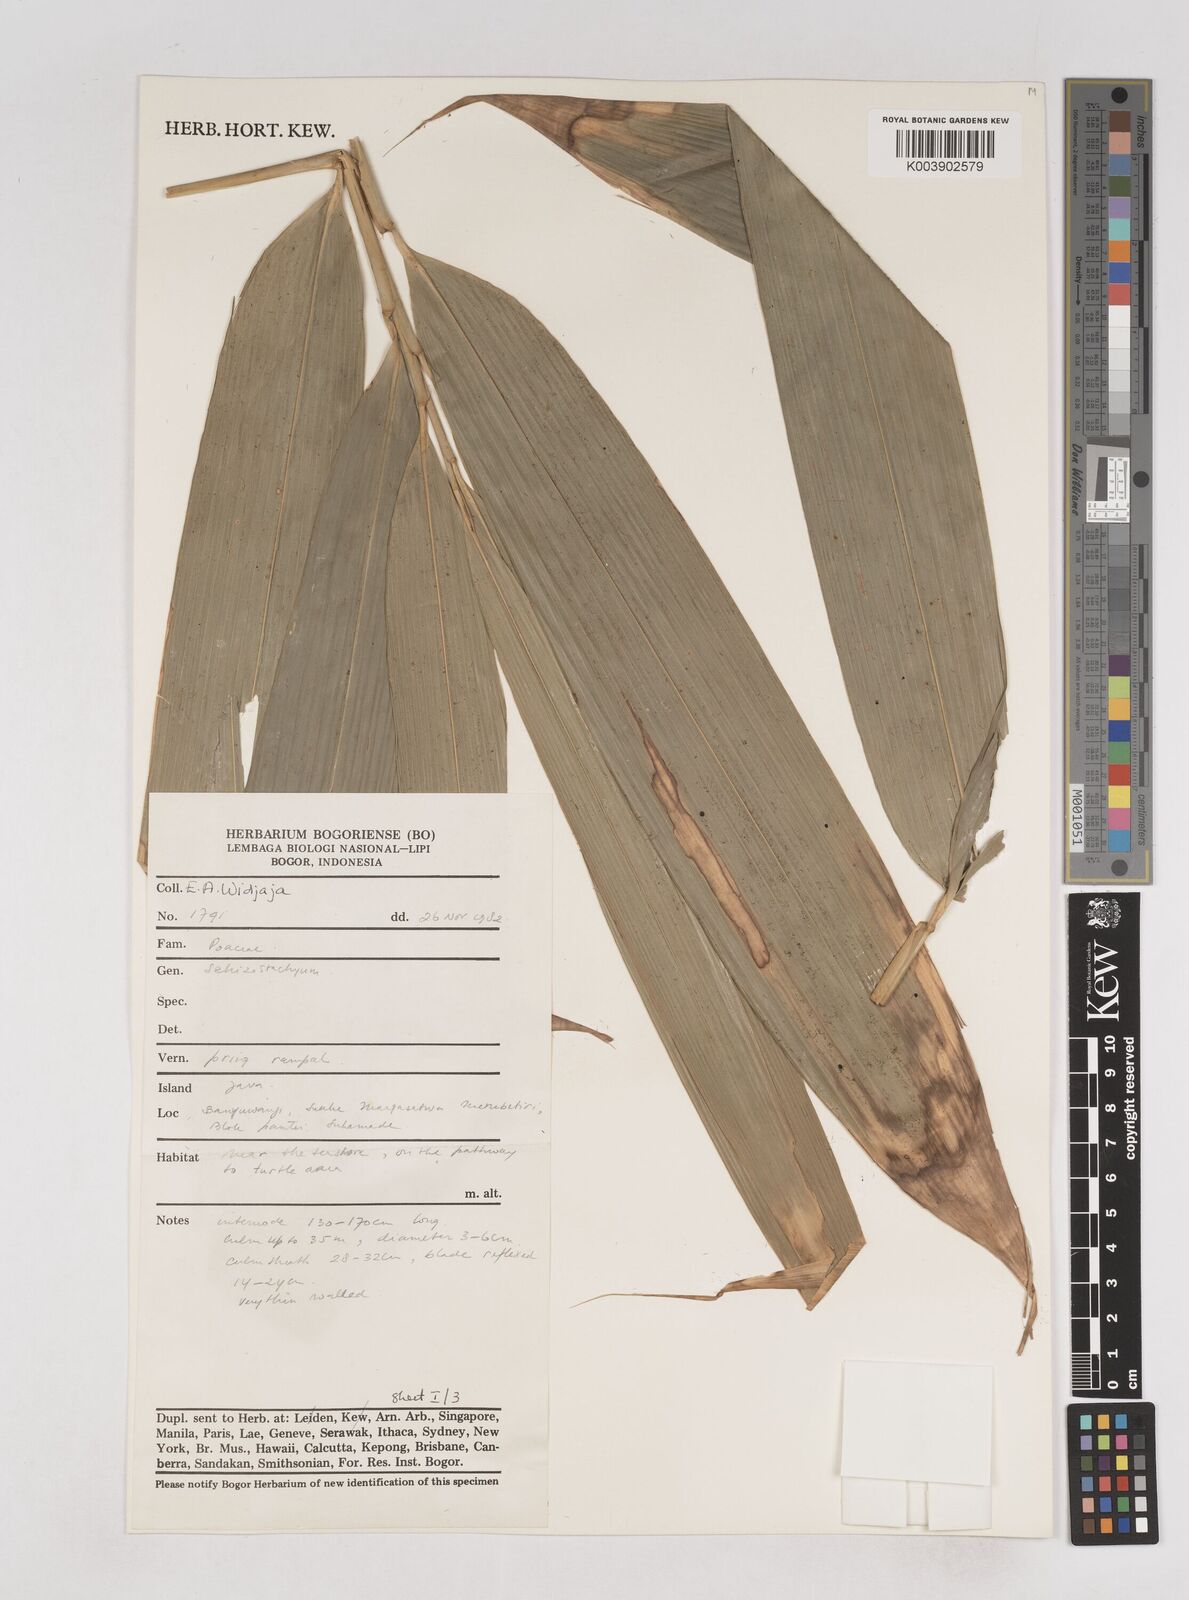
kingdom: Plantae
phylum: Tracheophyta
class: Liliopsida
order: Poales
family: Poaceae
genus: Schizostachyum
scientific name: Schizostachyum
